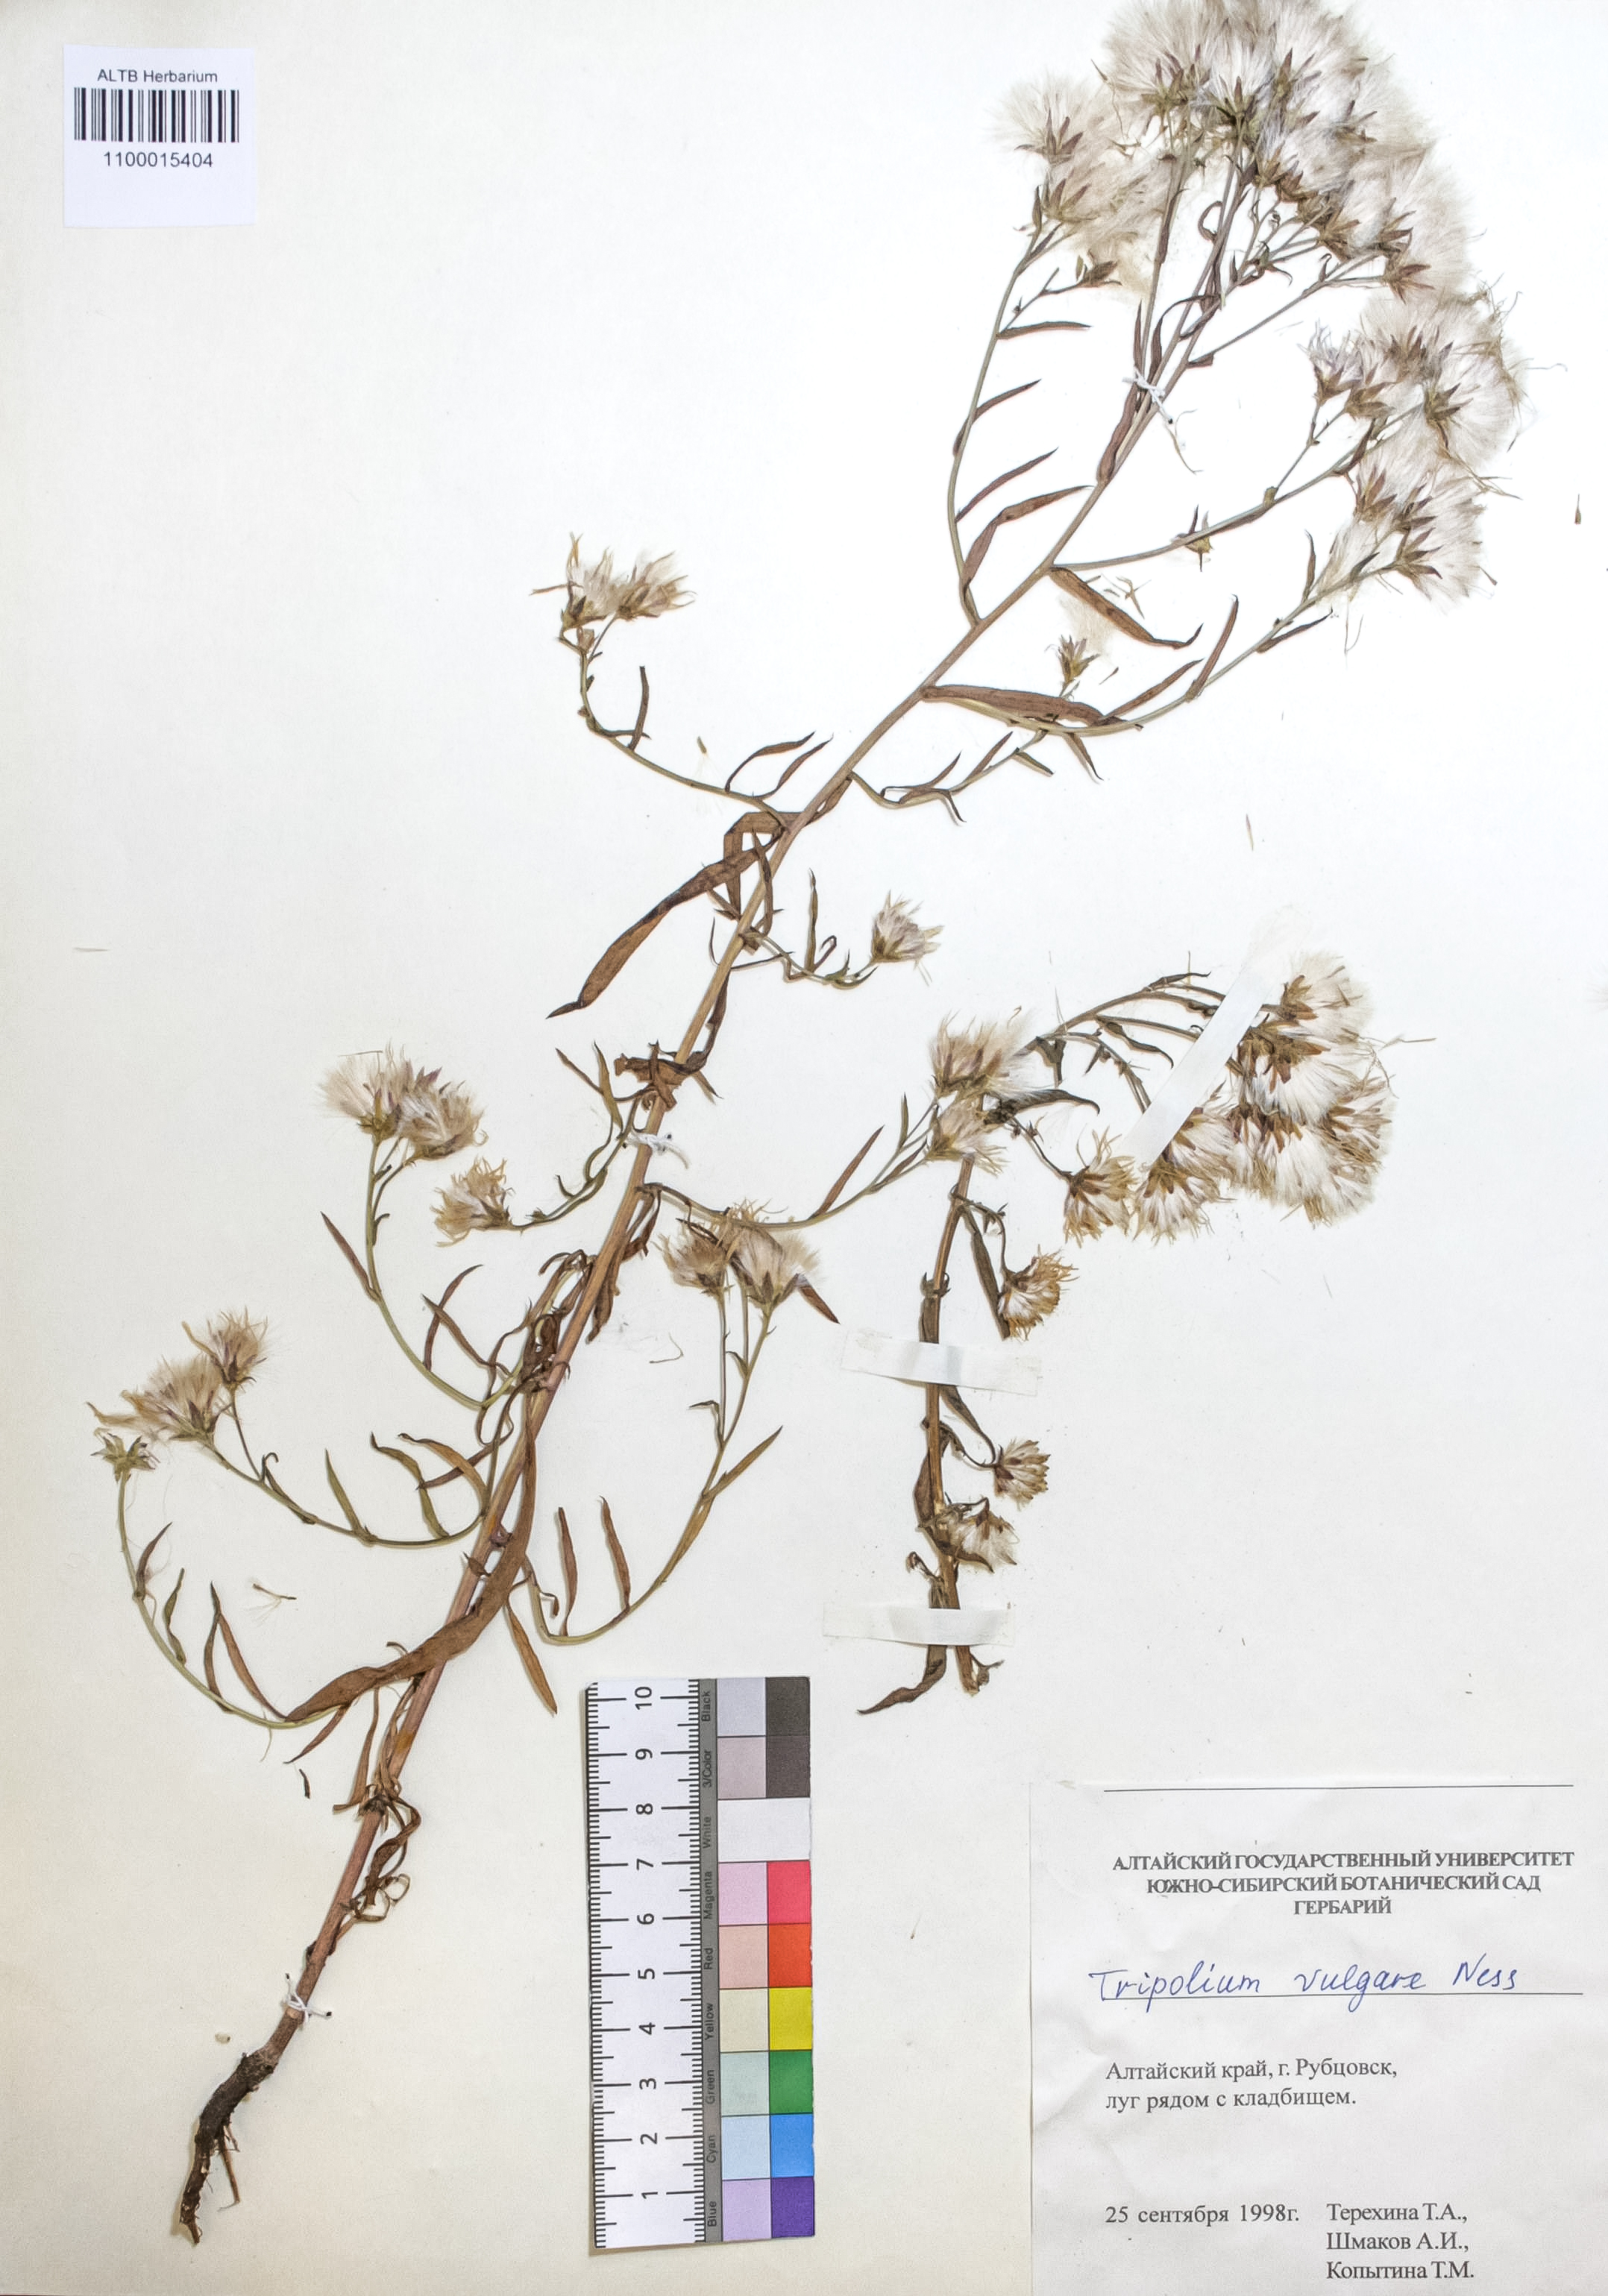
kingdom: Plantae
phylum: Tracheophyta
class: Magnoliopsida
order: Asterales
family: Asteraceae
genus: Tripolium
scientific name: Tripolium pannonicum
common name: Sea aster
